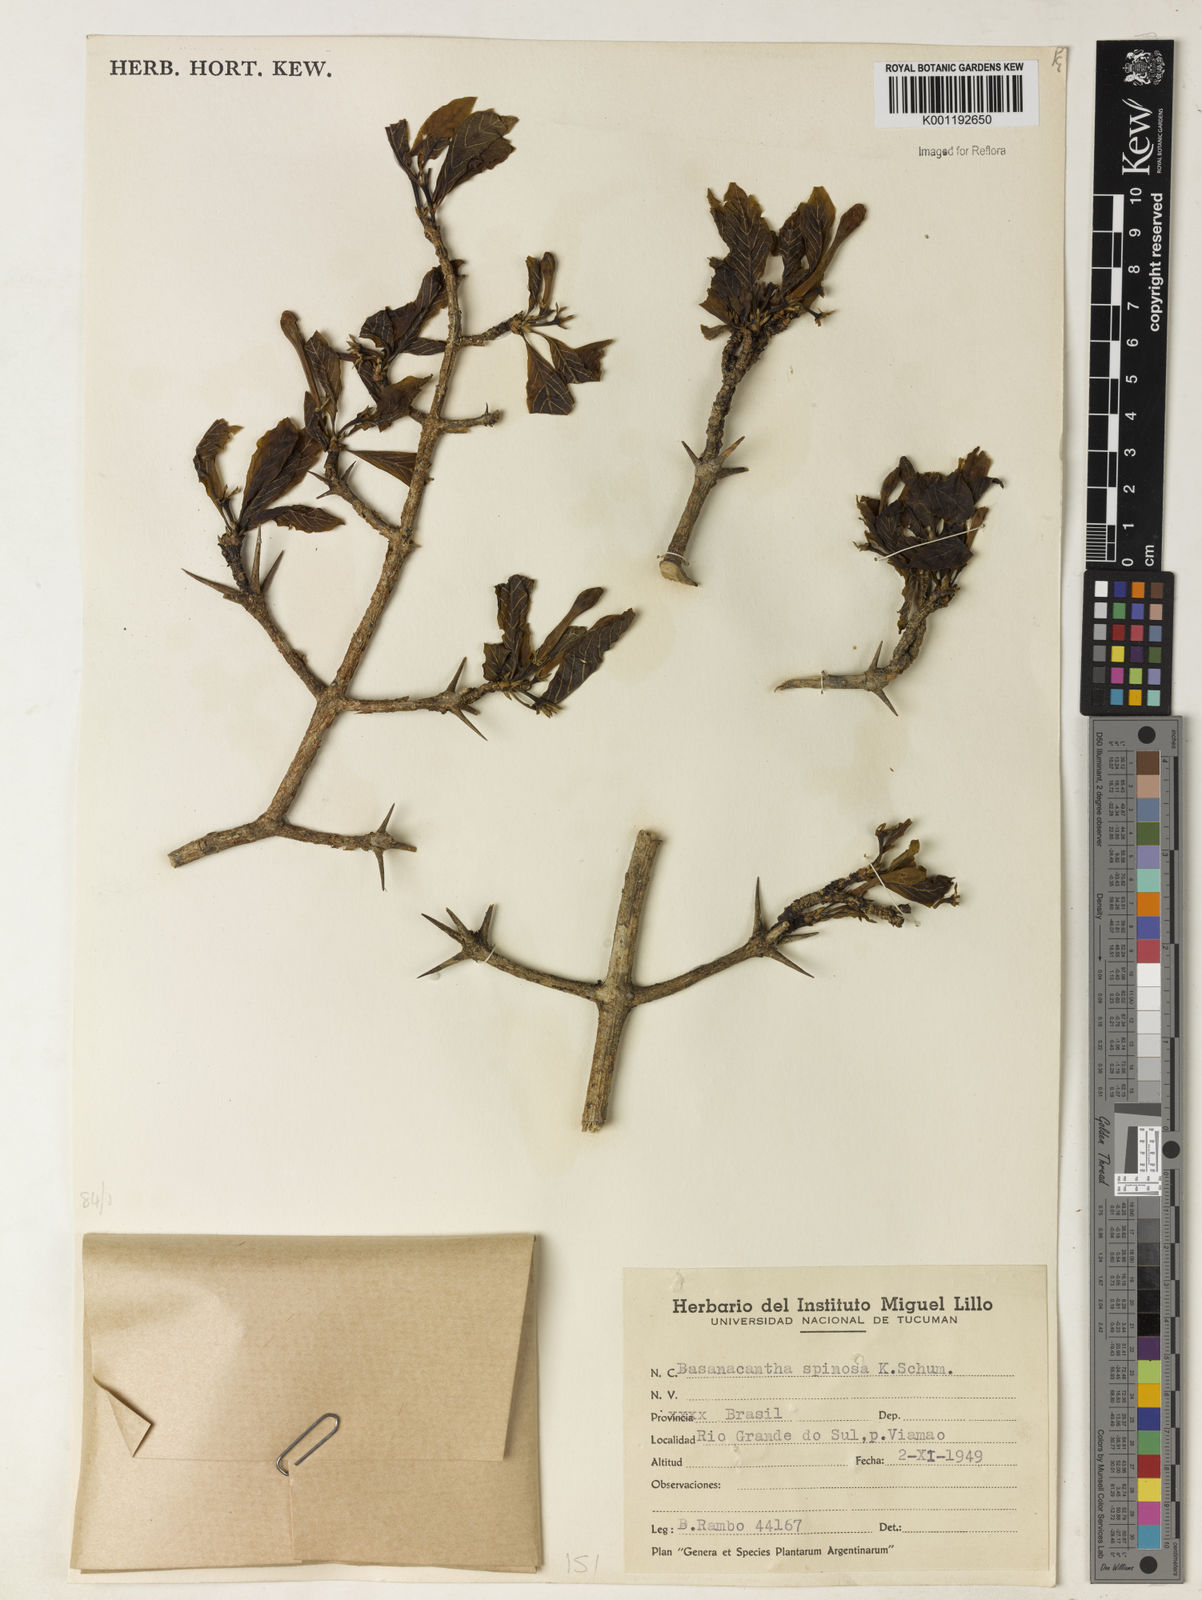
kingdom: Plantae
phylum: Tracheophyta
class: Magnoliopsida
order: Gentianales
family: Rubiaceae
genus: Randia
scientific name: Randia armata
